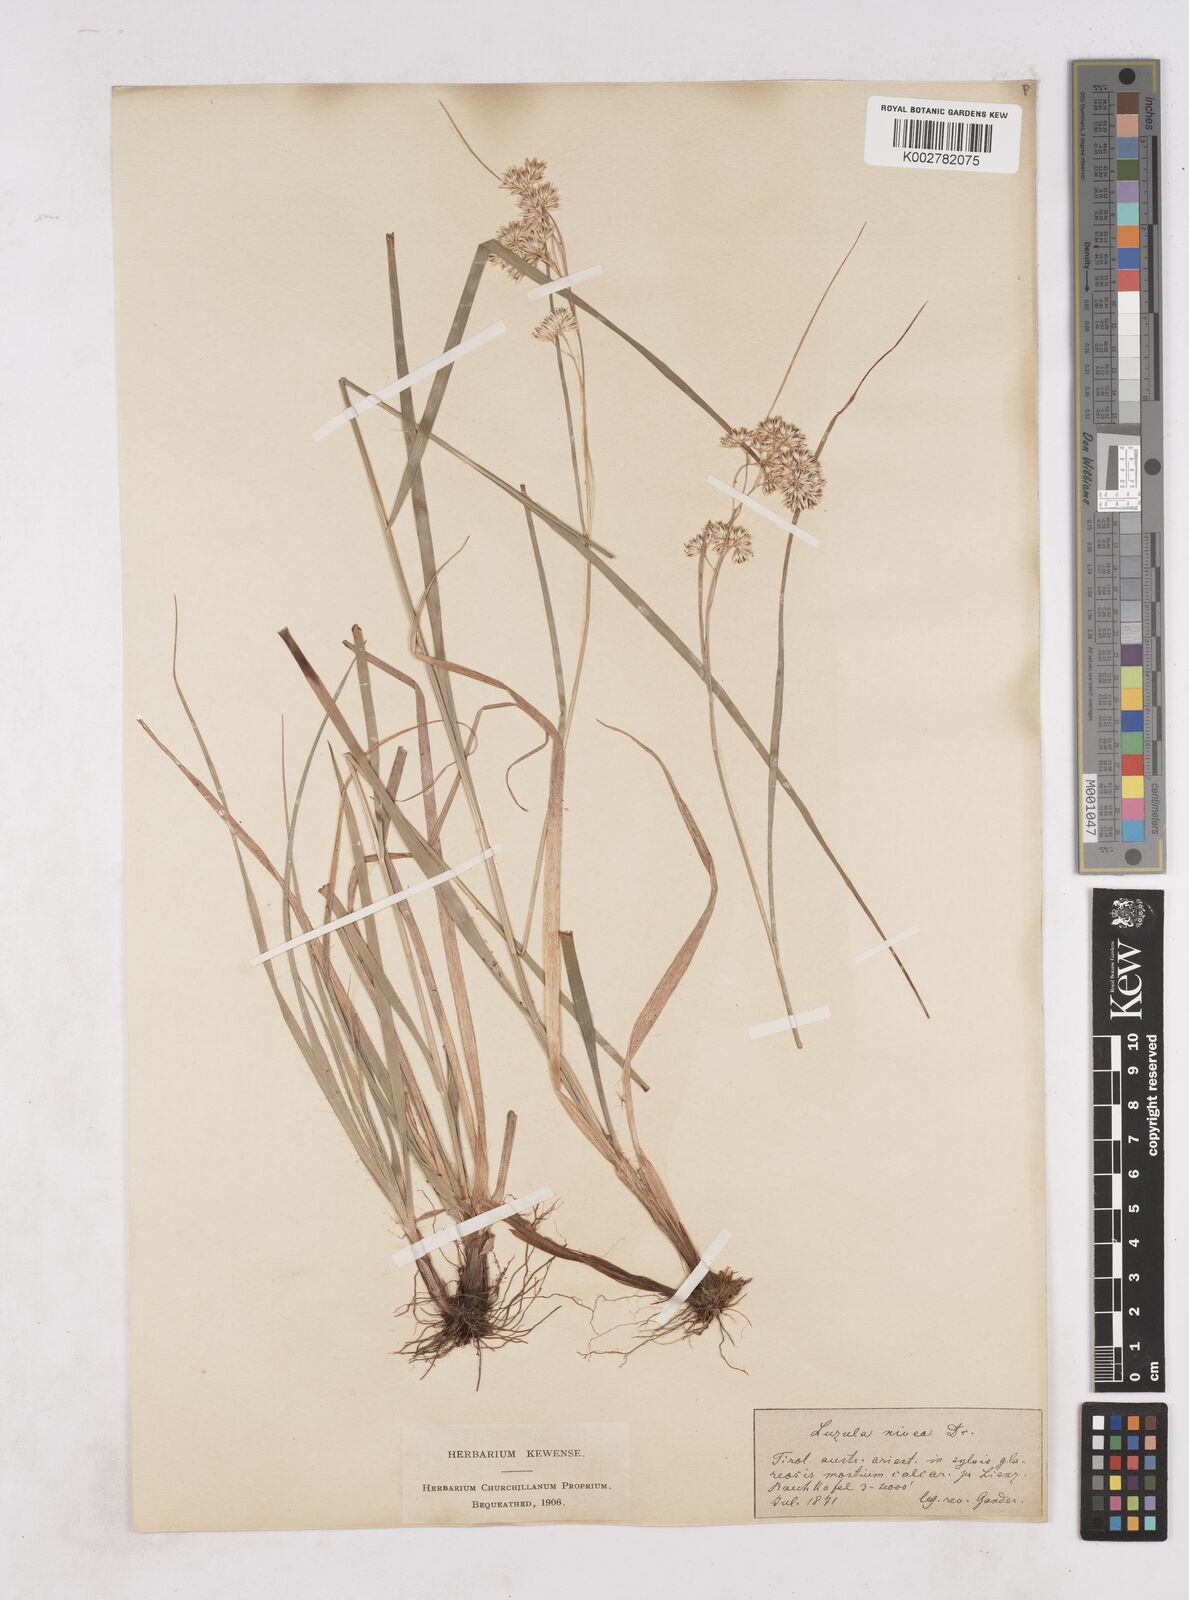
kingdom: Plantae
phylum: Tracheophyta
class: Liliopsida
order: Poales
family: Juncaceae
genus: Luzula
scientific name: Luzula nivea
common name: Snow-white wood-rush
